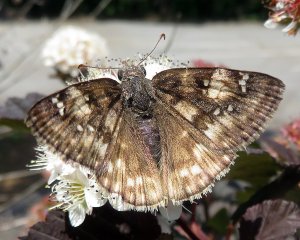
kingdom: Animalia
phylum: Arthropoda
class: Insecta
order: Lepidoptera
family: Hesperiidae
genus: Gesta
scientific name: Gesta
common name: Horace's Duskywing
